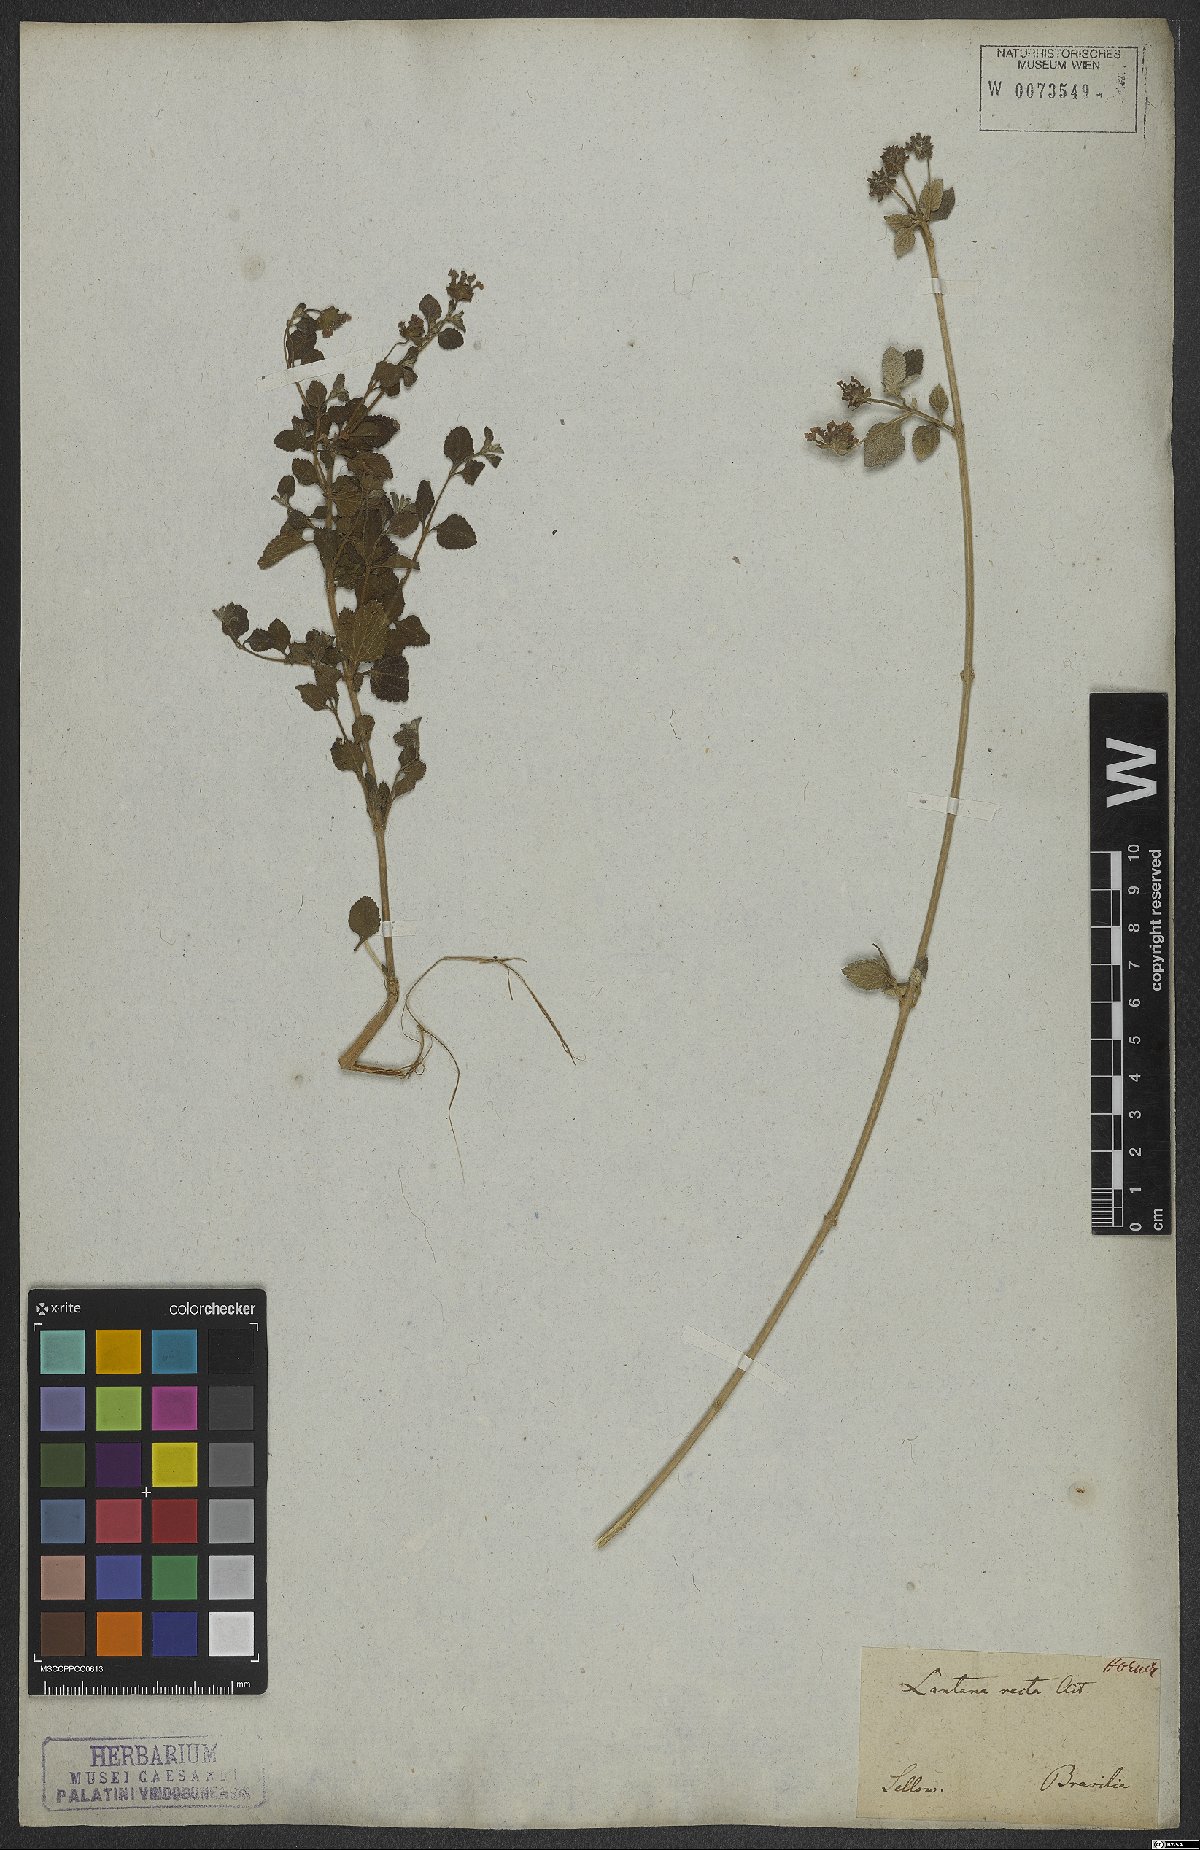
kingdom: Plantae
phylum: Tracheophyta
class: Magnoliopsida
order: Lamiales
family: Verbenaceae
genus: Lantana
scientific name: Lantana fucata
